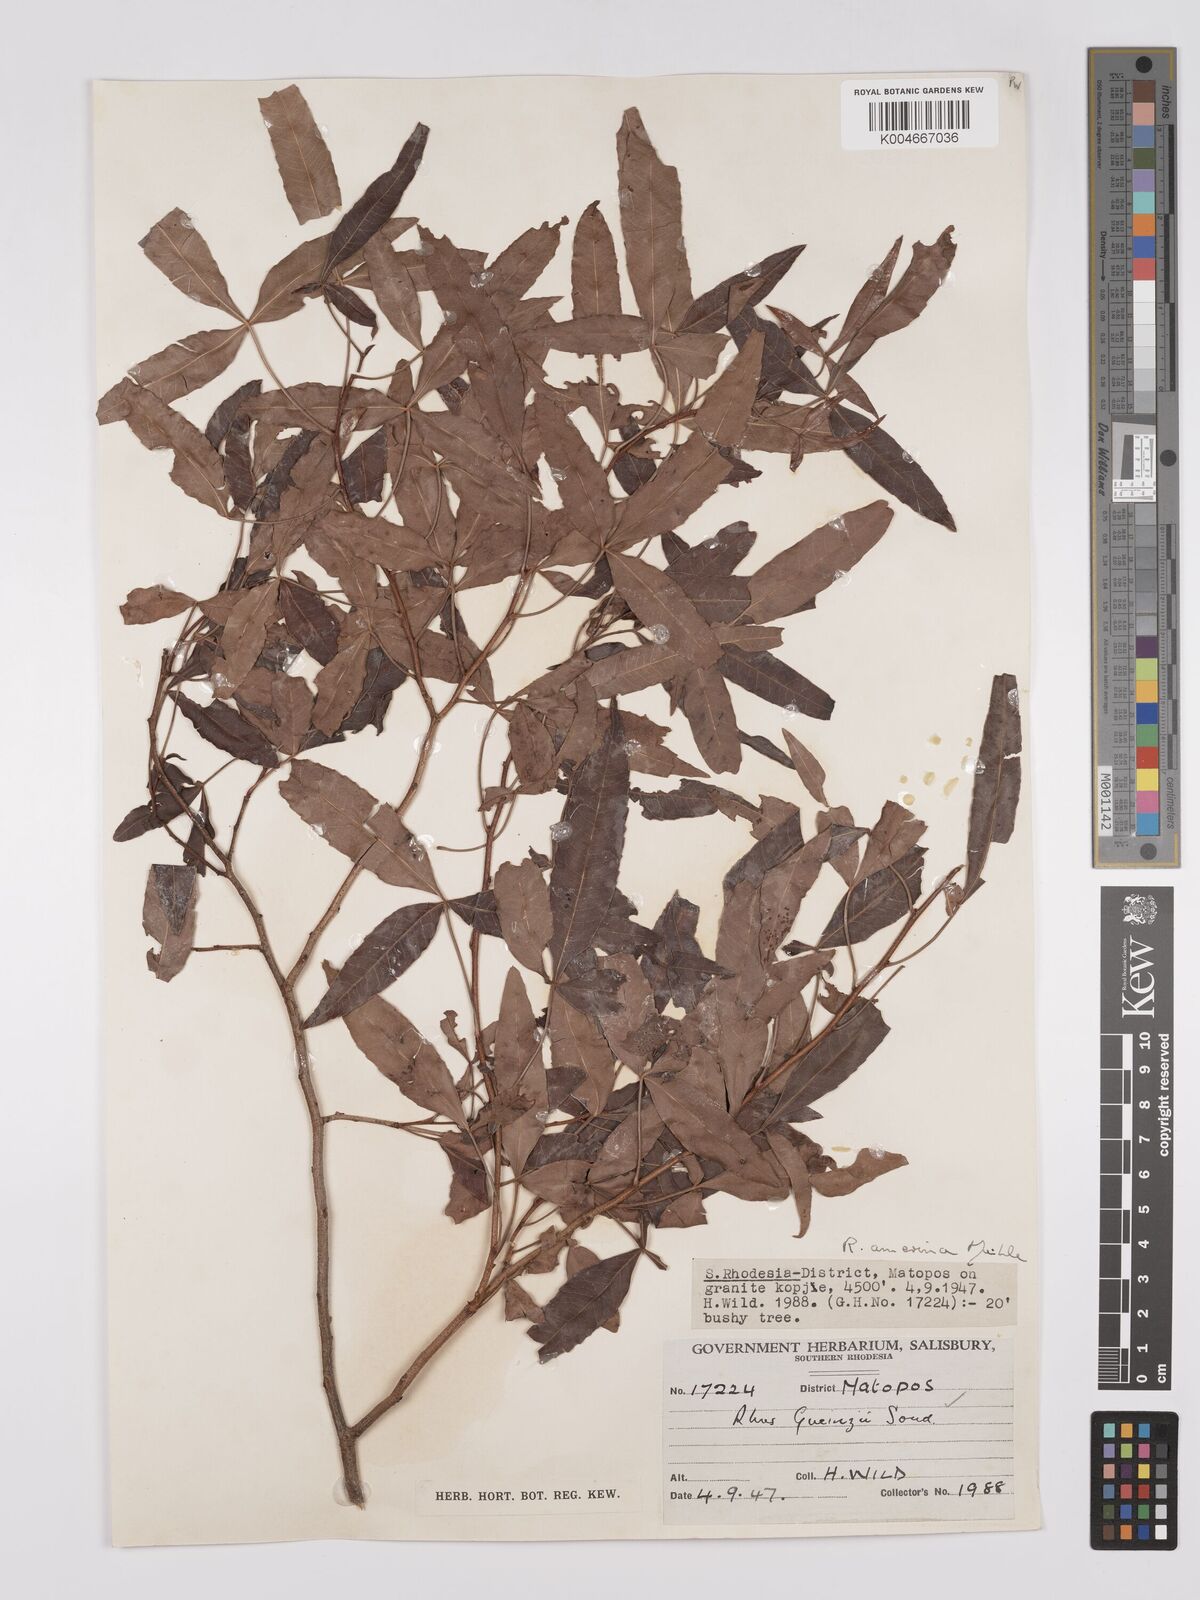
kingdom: Plantae
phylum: Tracheophyta
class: Magnoliopsida
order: Sapindales
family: Anacardiaceae
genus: Searsia
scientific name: Searsia leptodictya
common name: Mountain karee
